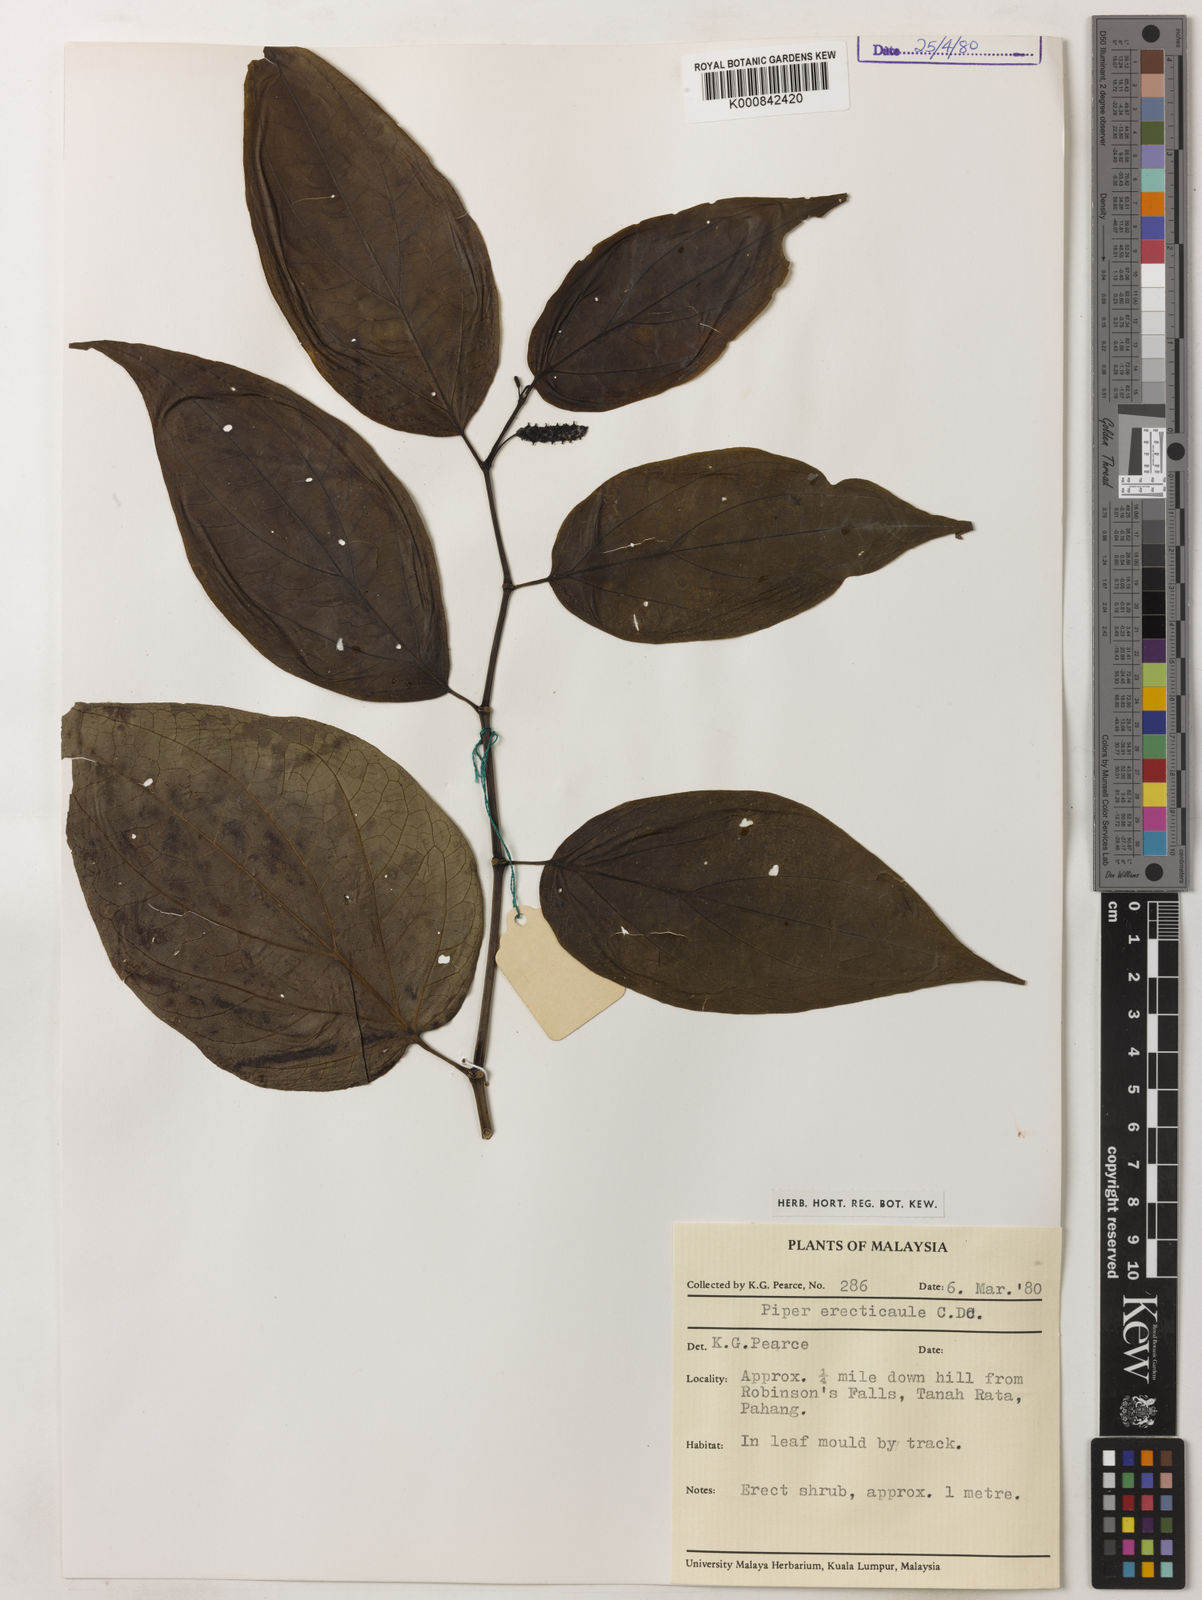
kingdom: Plantae
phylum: Tracheophyta
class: Magnoliopsida
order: Piperales
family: Piperaceae
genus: Piper
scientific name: Piper erecticaule
